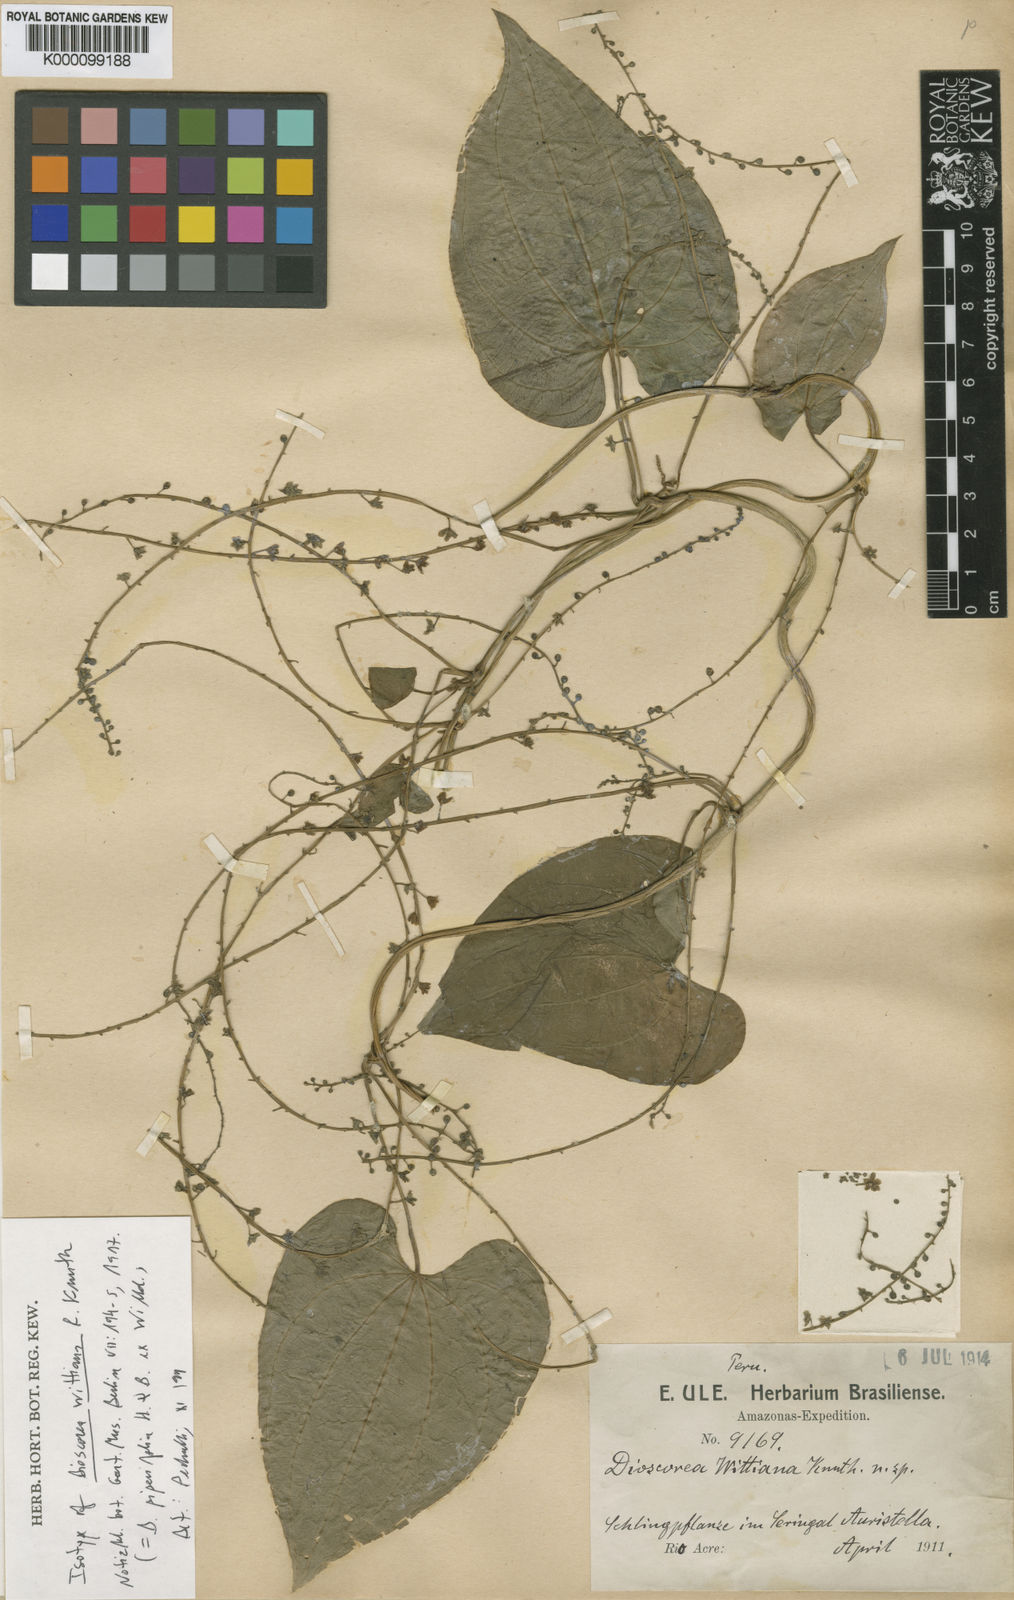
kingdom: Plantae
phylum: Tracheophyta
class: Liliopsida
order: Dioscoreales
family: Dioscoreaceae
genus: Dioscorea
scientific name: Dioscorea wittiana
